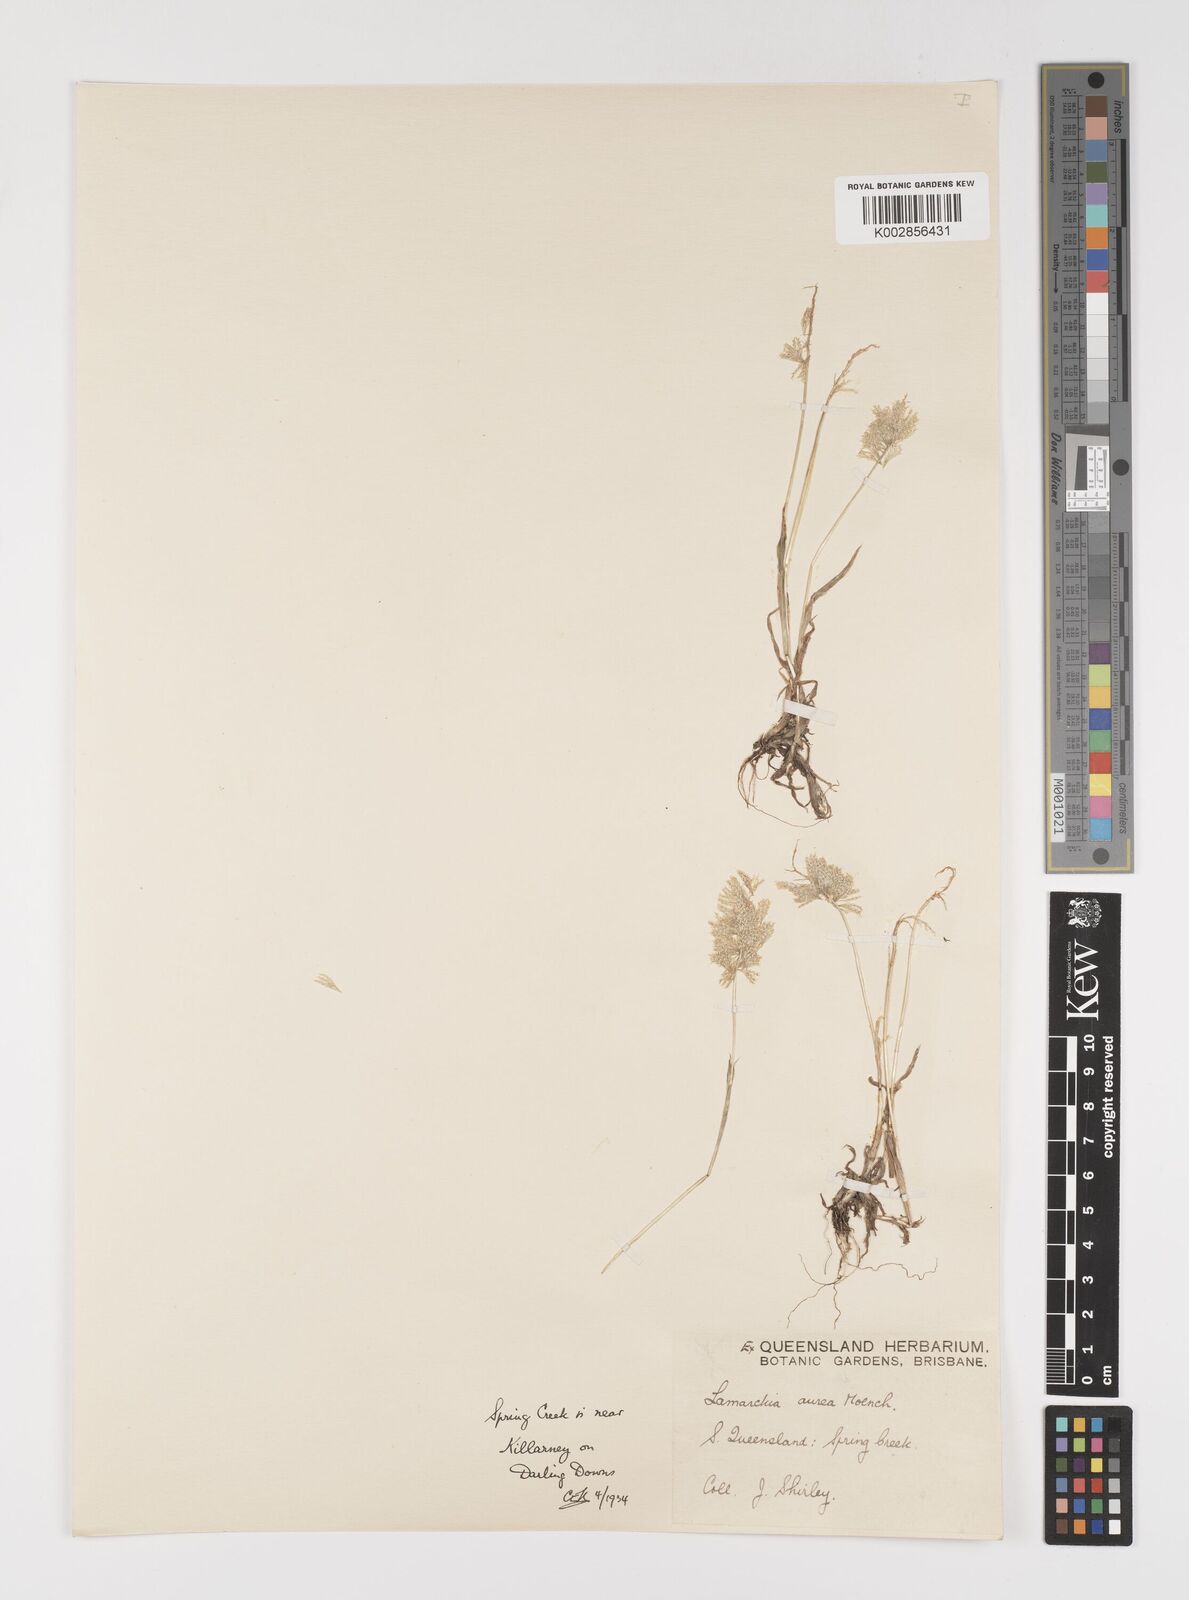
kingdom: Plantae
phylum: Tracheophyta
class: Liliopsida
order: Poales
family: Poaceae
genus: Lamarckia
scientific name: Lamarckia aurea
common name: Golden dog's-tail
